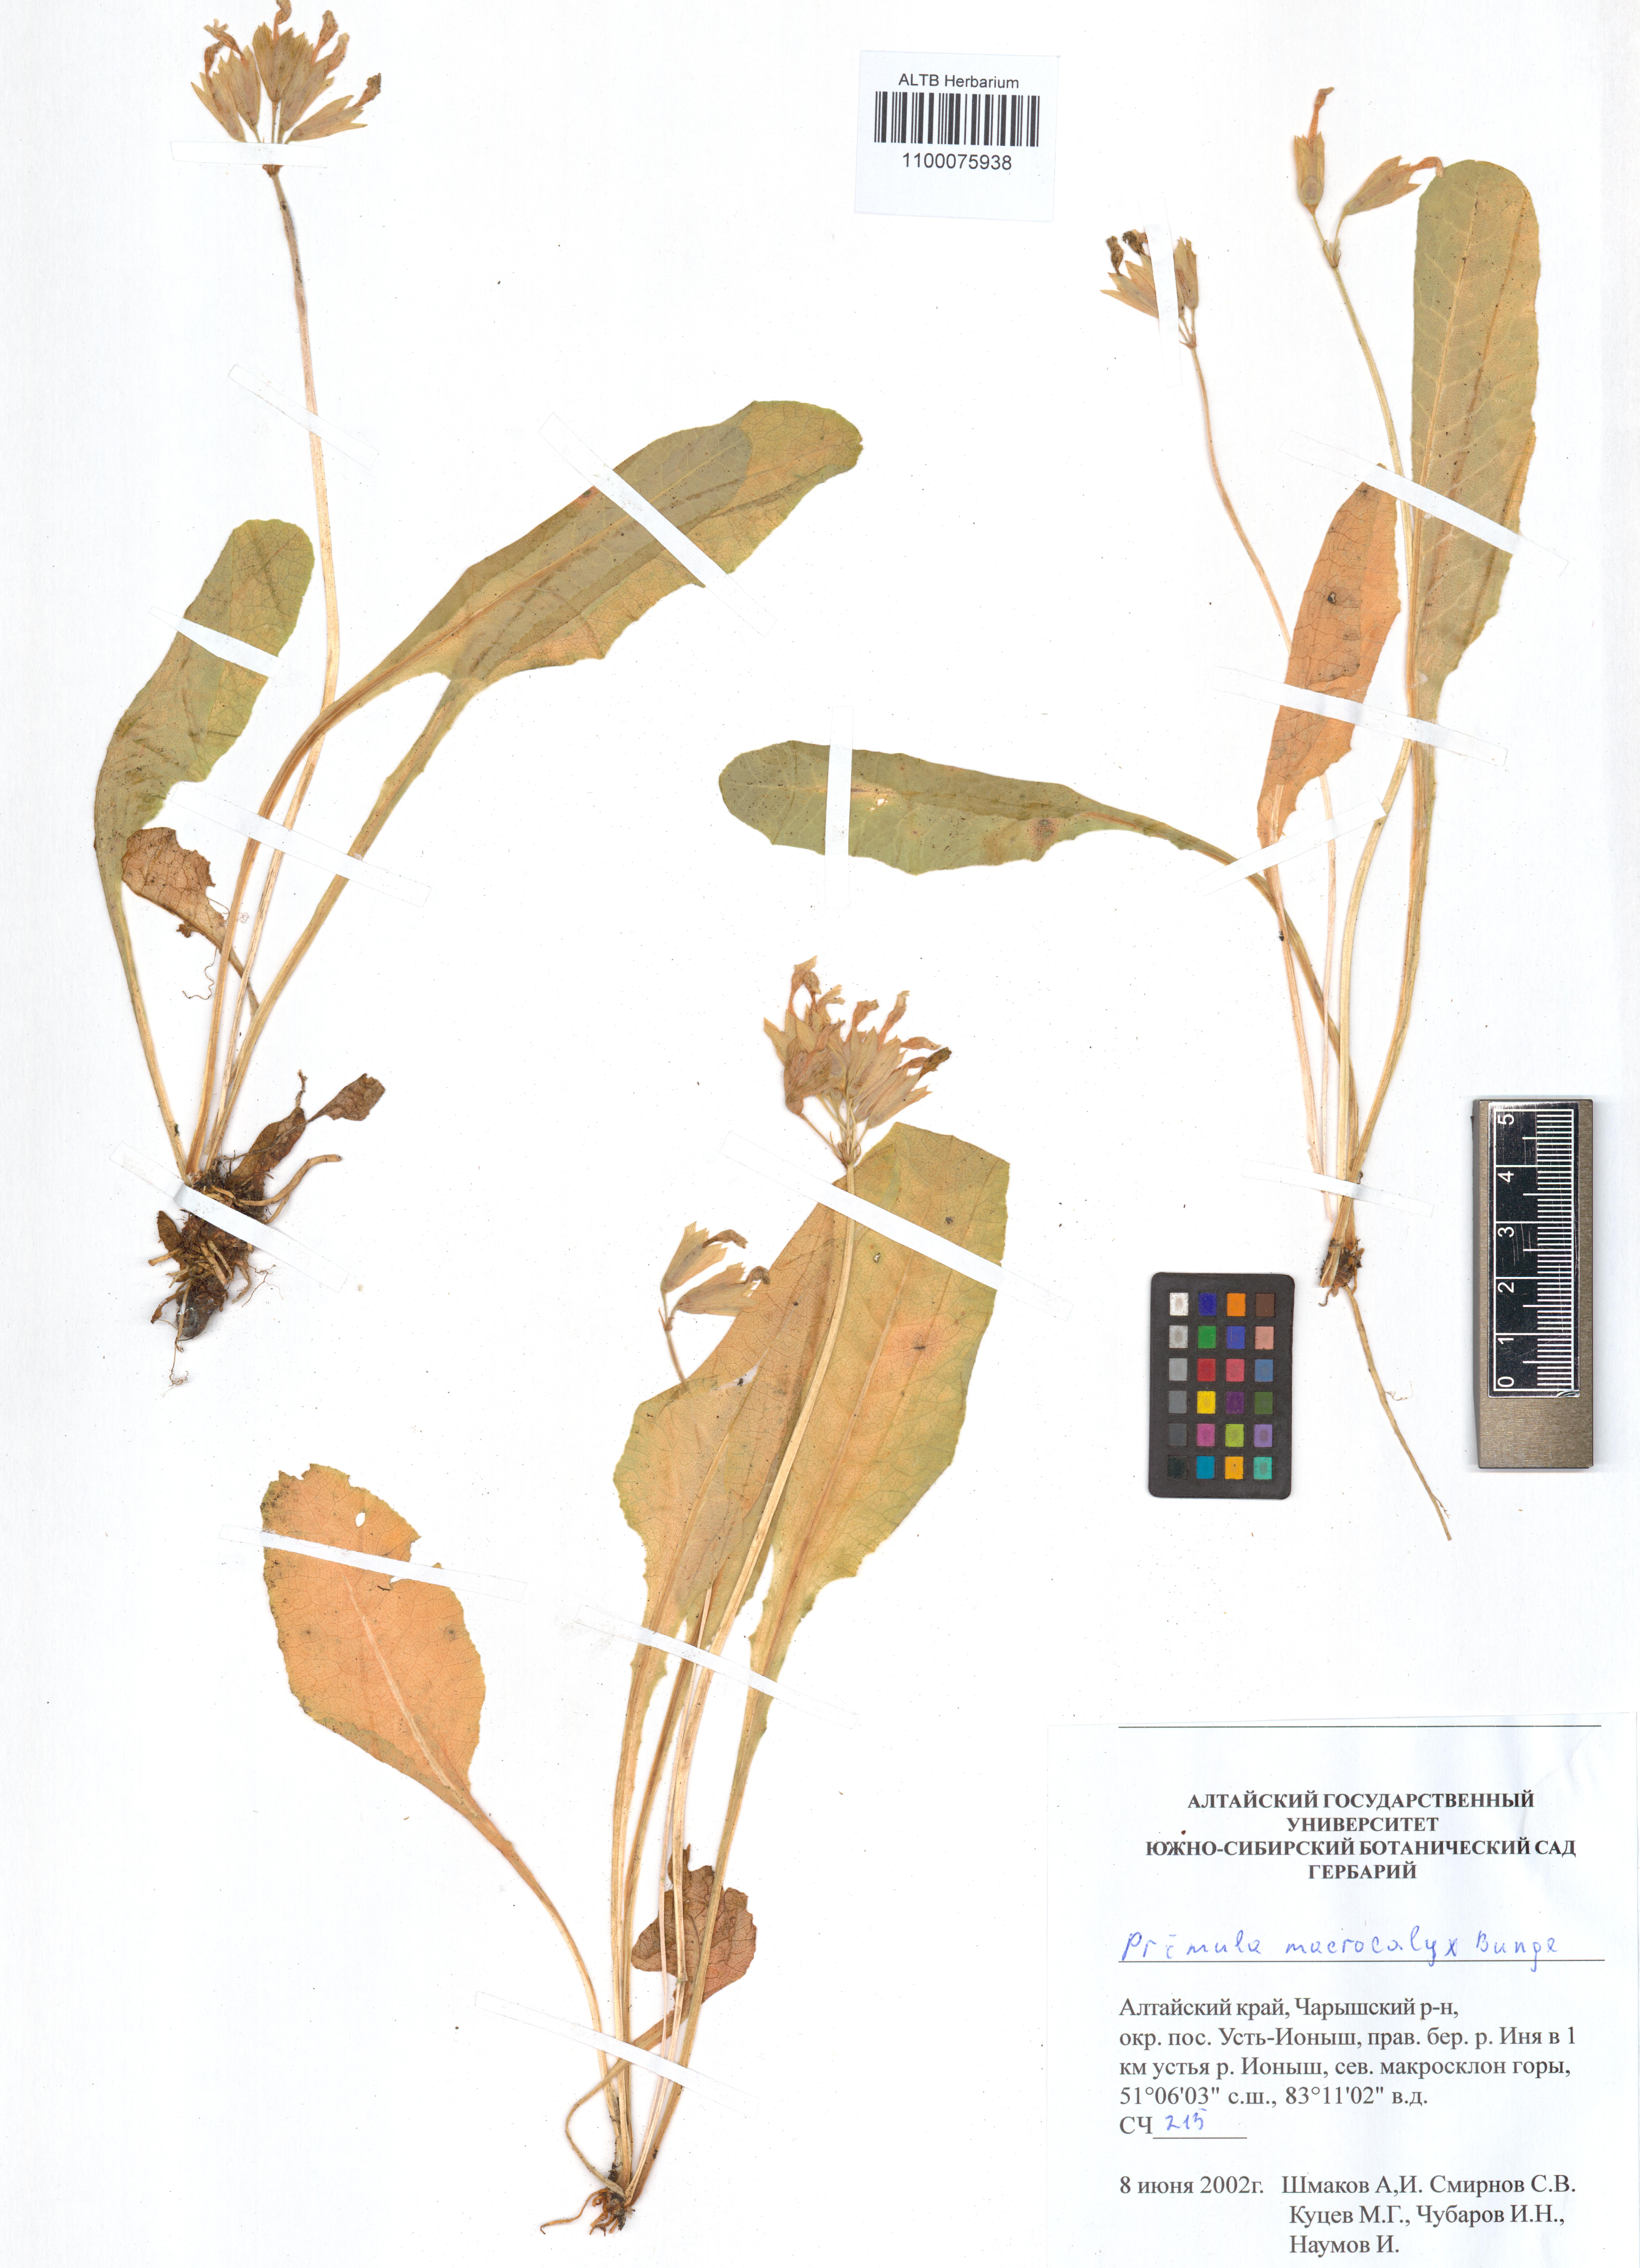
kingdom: Plantae
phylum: Tracheophyta
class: Magnoliopsida
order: Ericales
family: Primulaceae
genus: Primula
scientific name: Primula veris
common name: Cowslip
